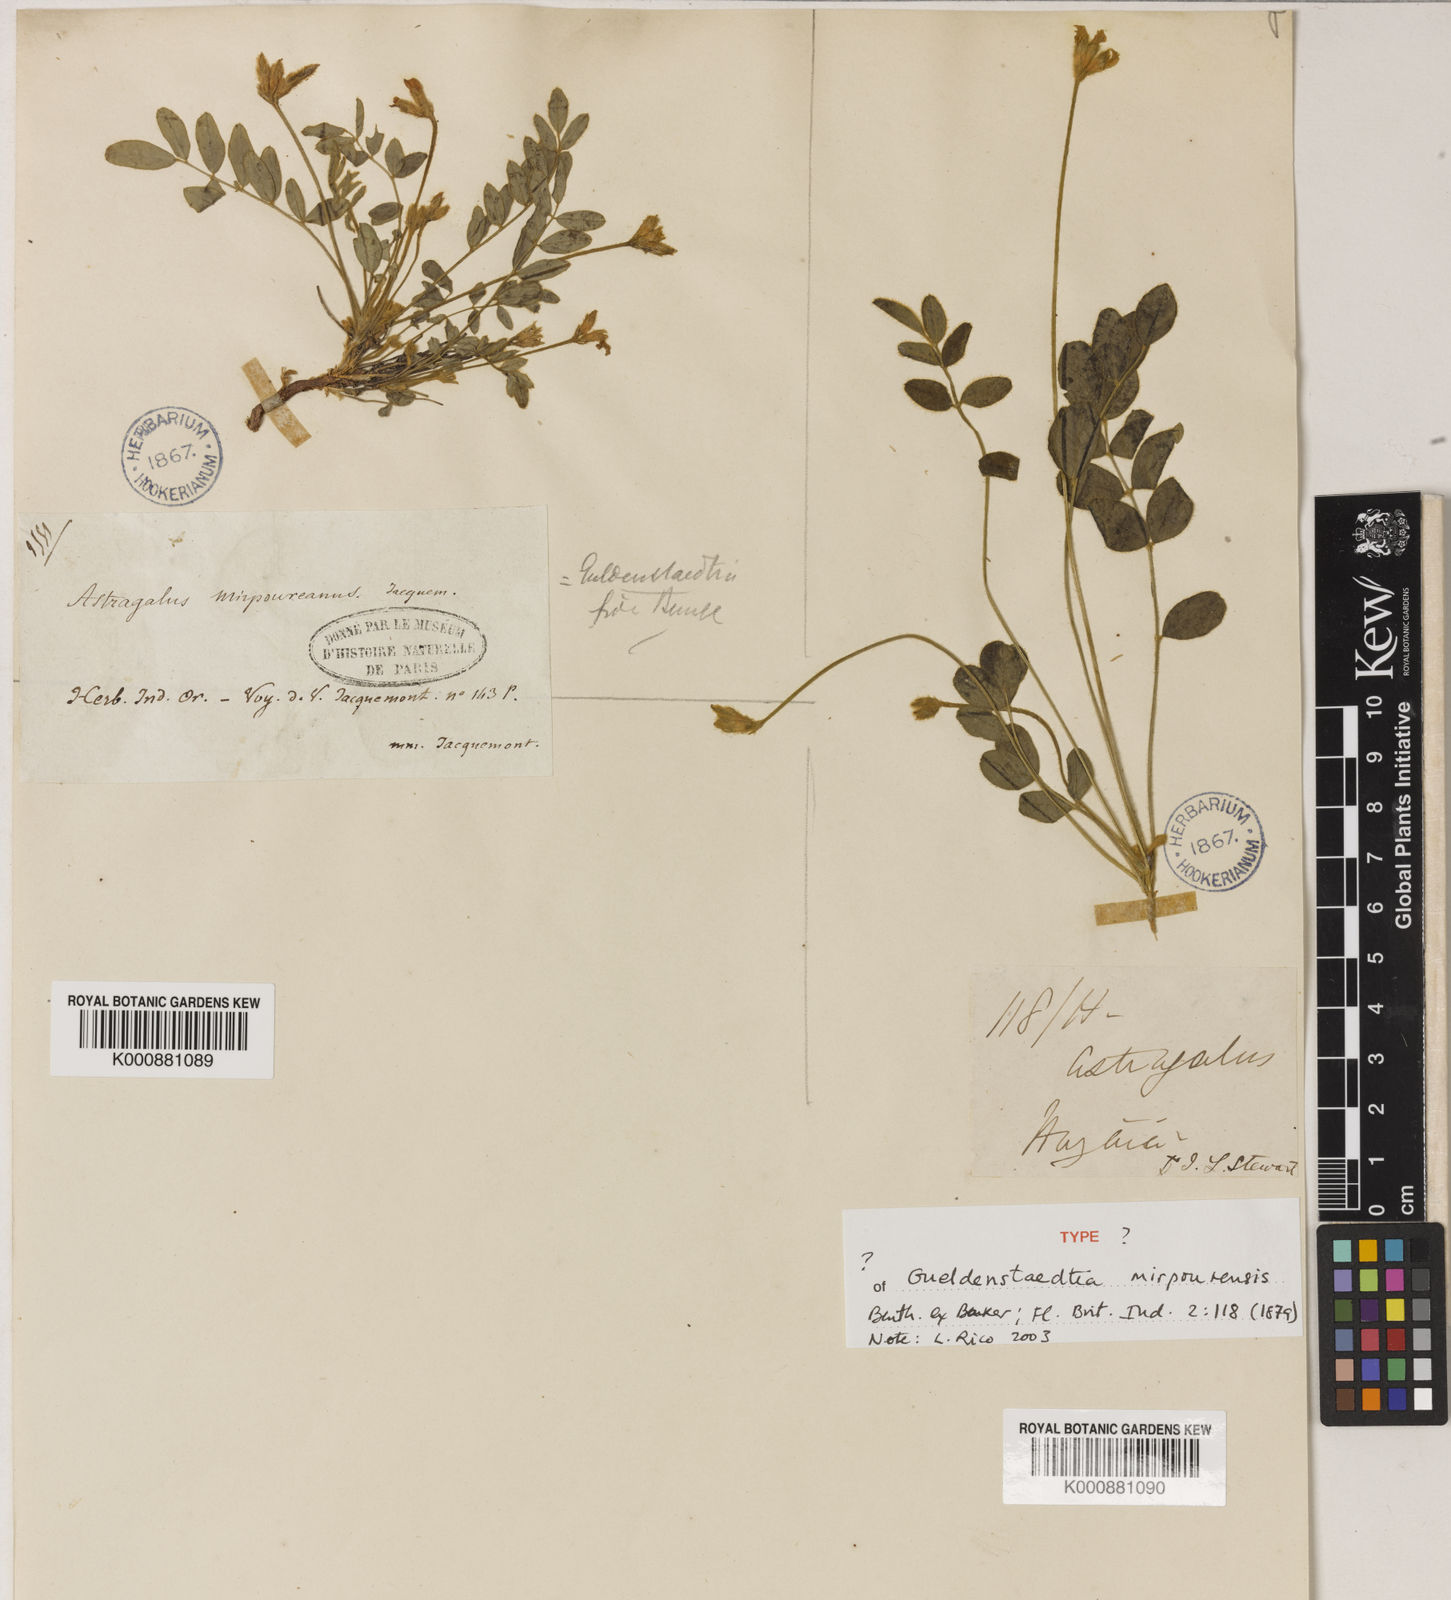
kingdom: Plantae
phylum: Tracheophyta
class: Magnoliopsida
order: Fabales
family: Fabaceae
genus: Gueldenstaedtia
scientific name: Gueldenstaedtia
